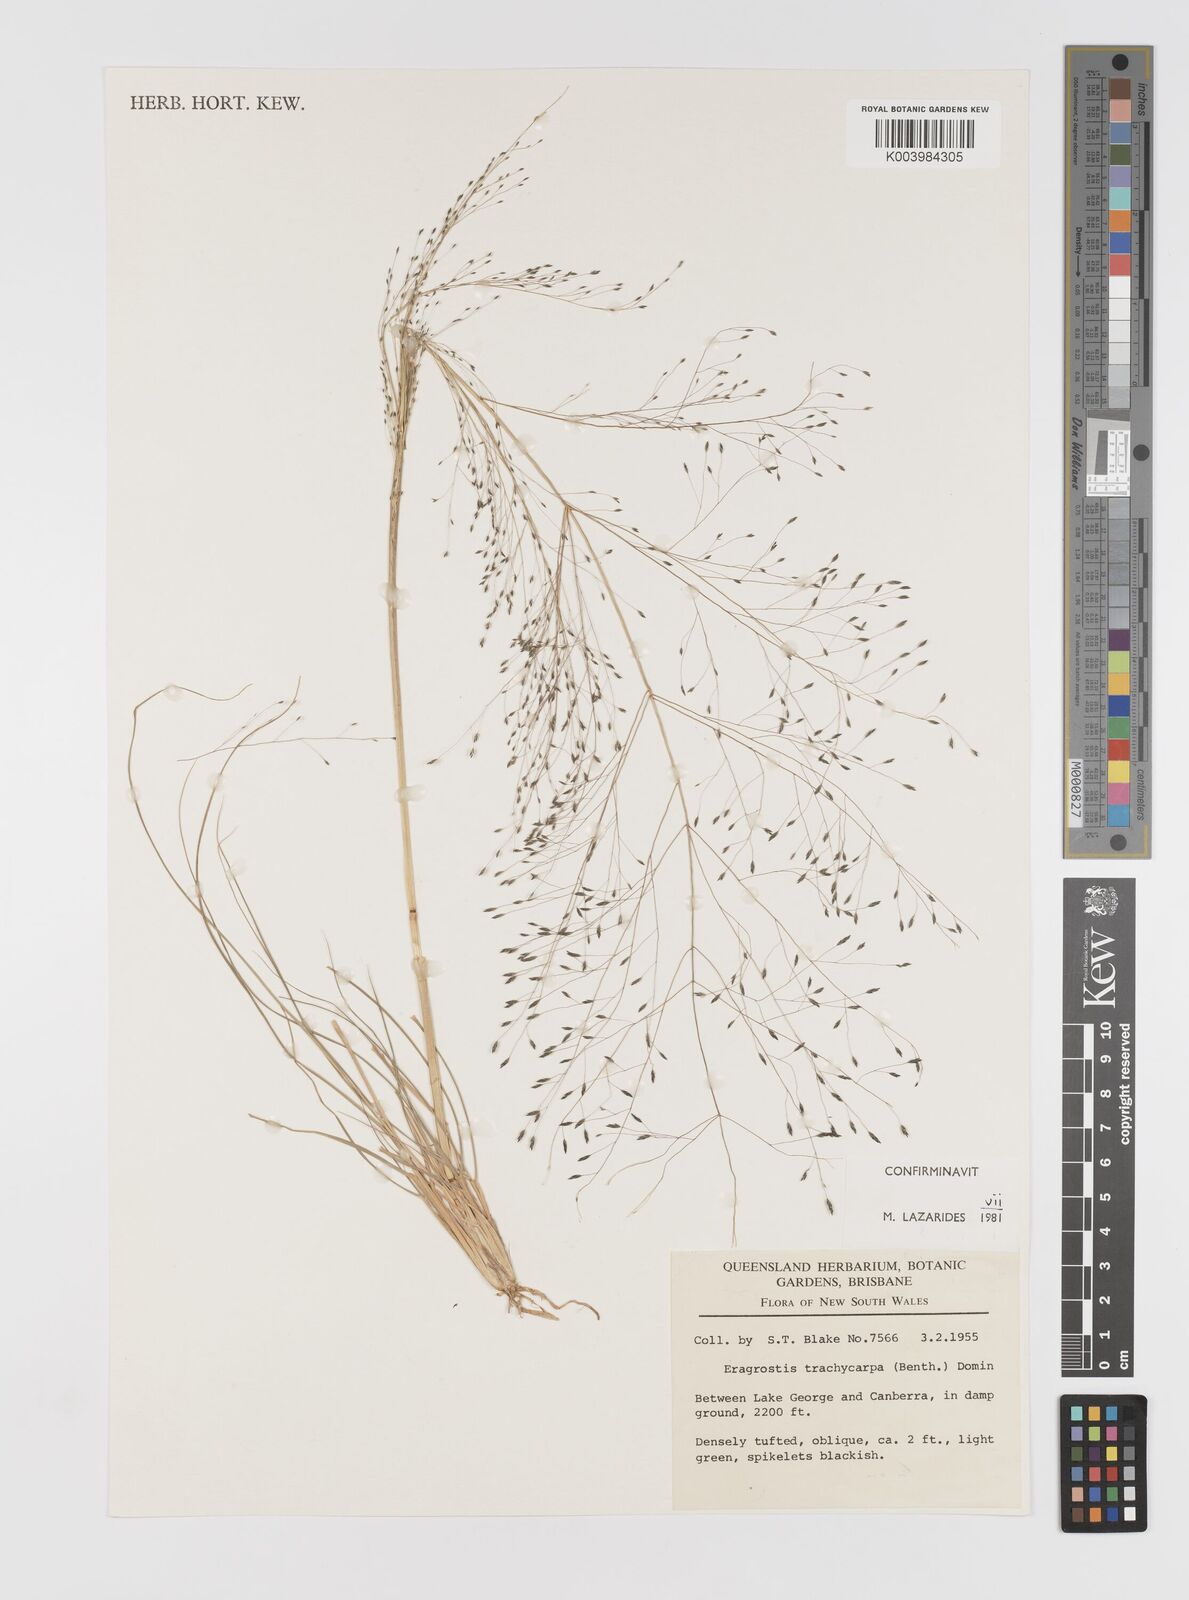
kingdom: Plantae
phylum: Tracheophyta
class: Liliopsida
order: Poales
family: Poaceae
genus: Eragrostis
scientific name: Eragrostis trachycarpa
